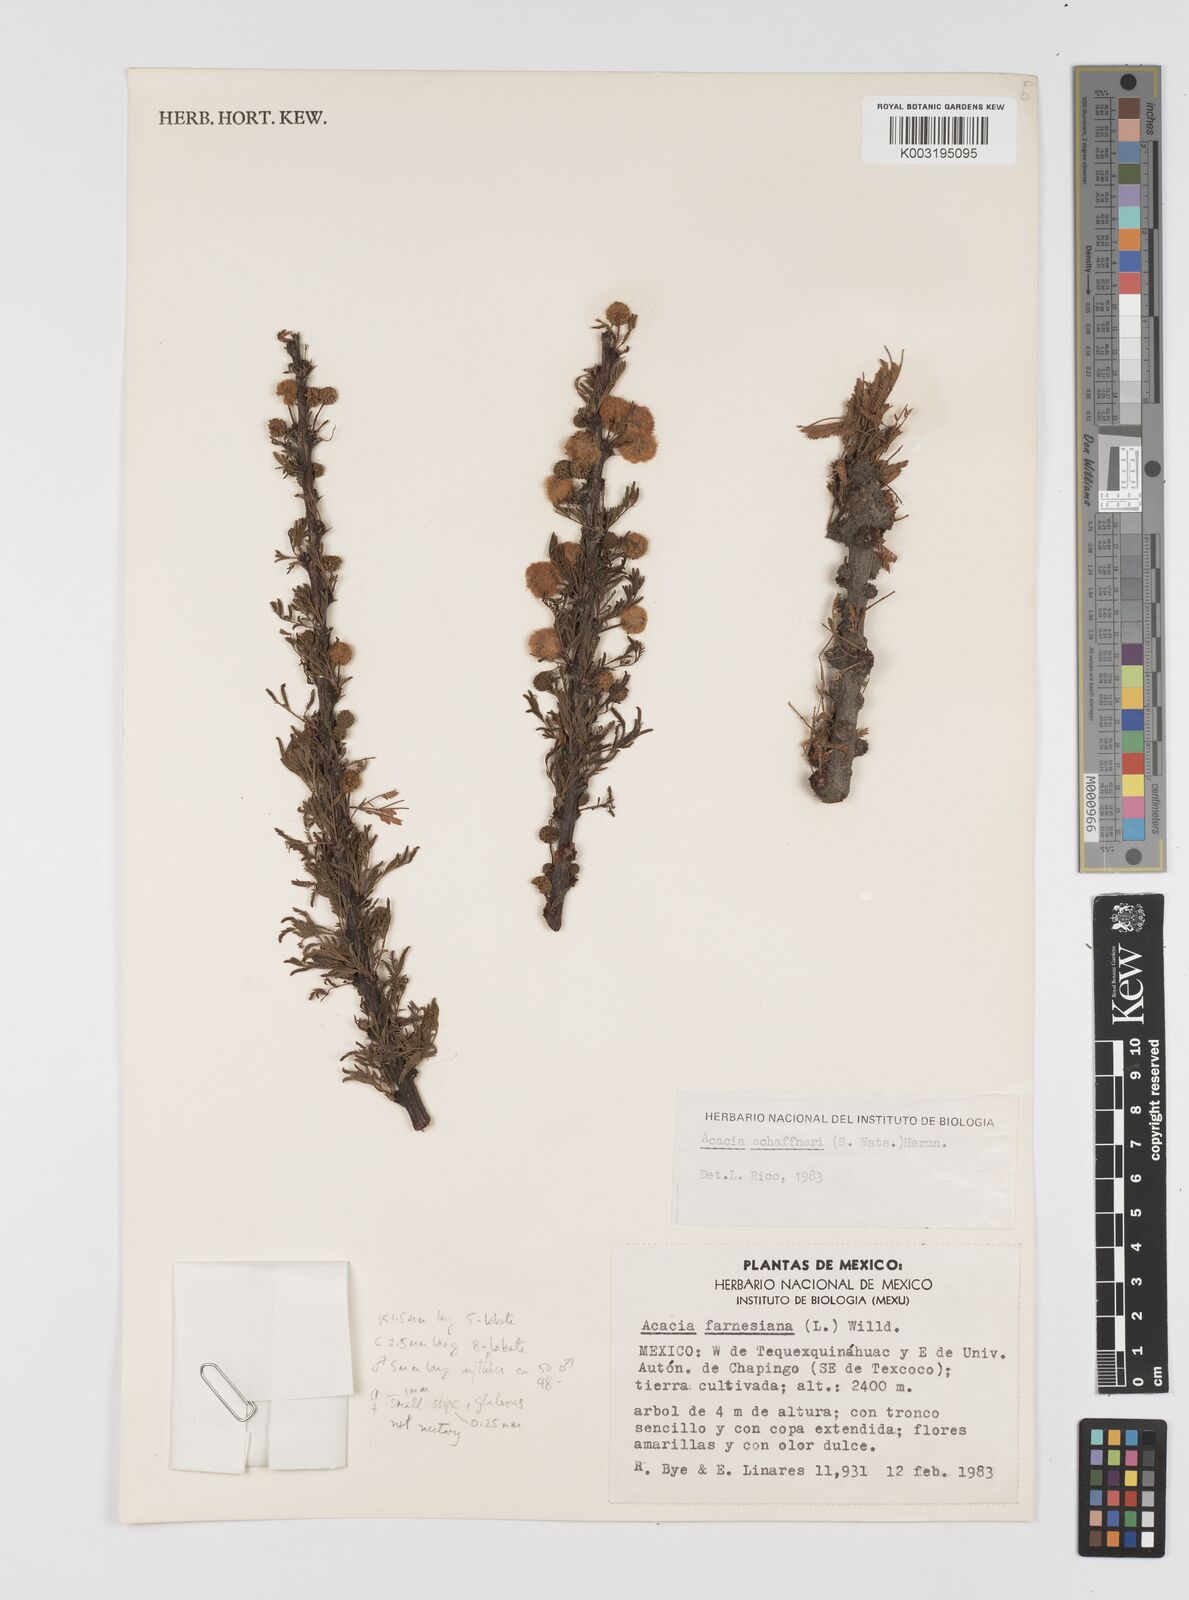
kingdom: Plantae
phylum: Tracheophyta
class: Magnoliopsida
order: Fabales
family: Fabaceae
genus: Vachellia
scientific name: Vachellia schaffneri
